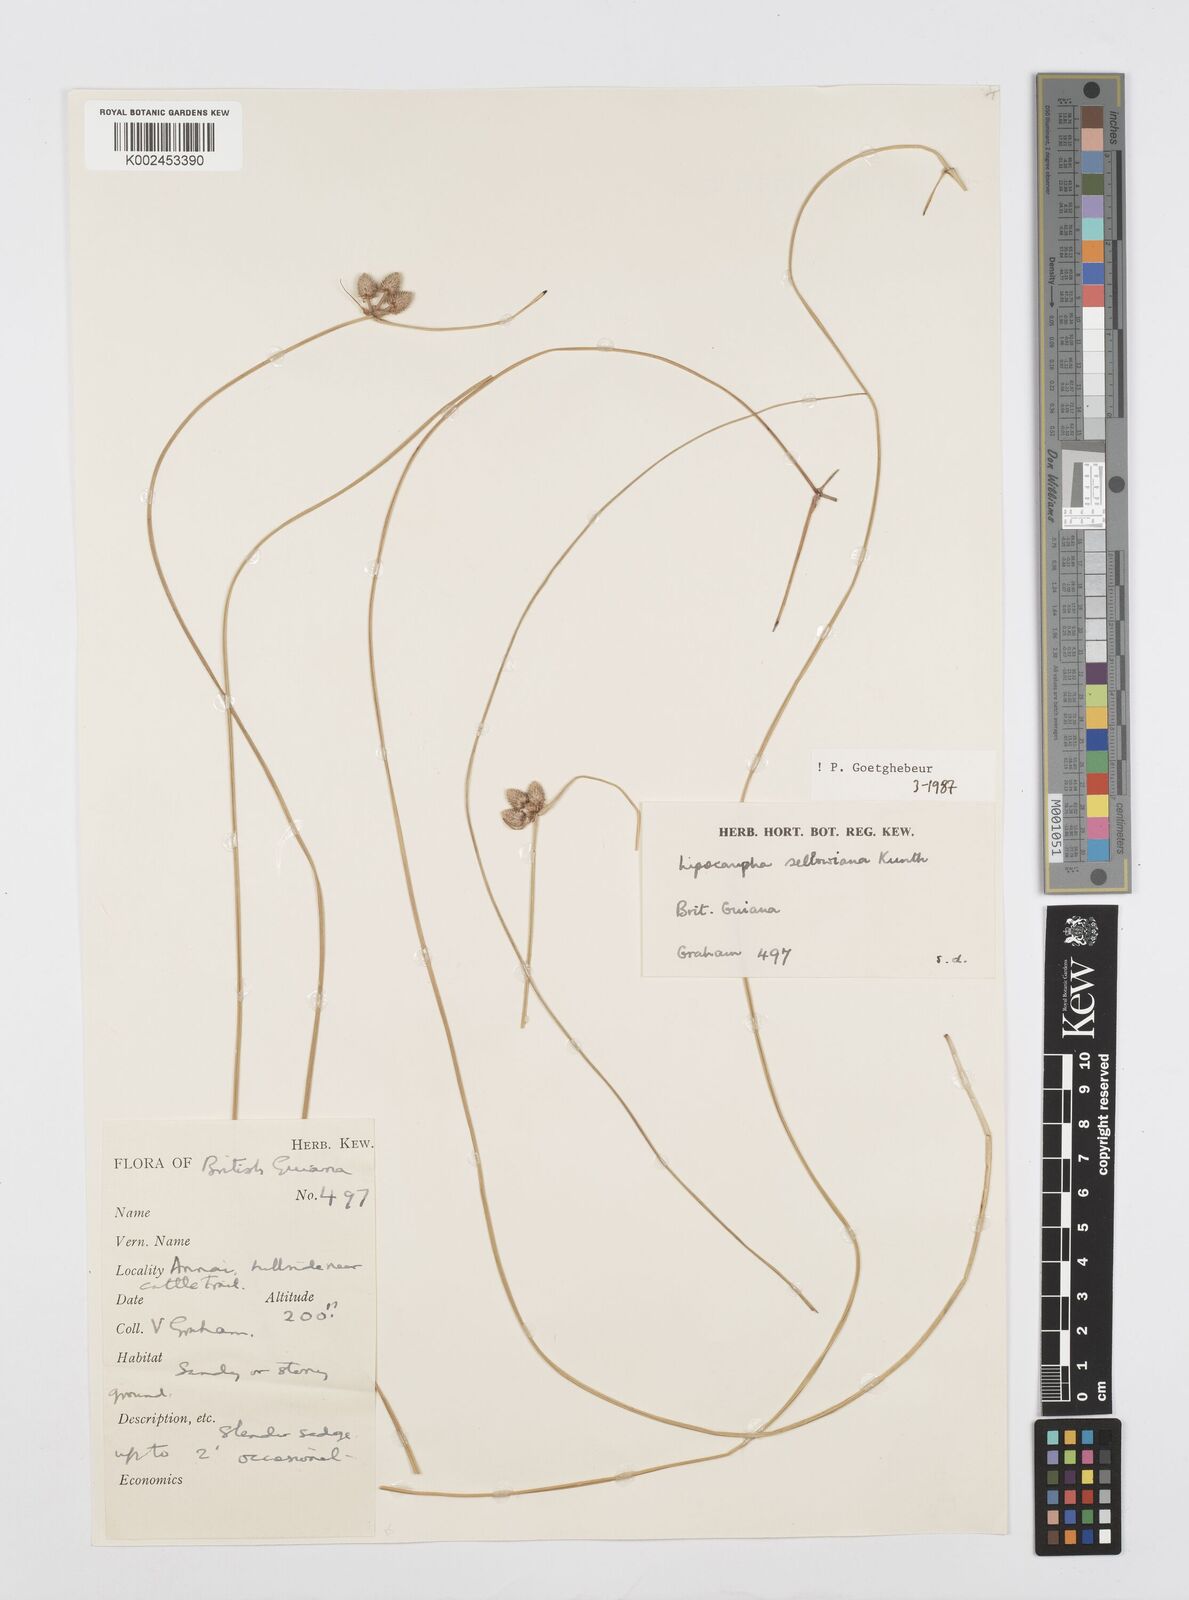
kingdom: Plantae
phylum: Tracheophyta
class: Liliopsida
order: Poales
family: Cyperaceae
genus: Cyperus
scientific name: Cyperus lanceolatus
